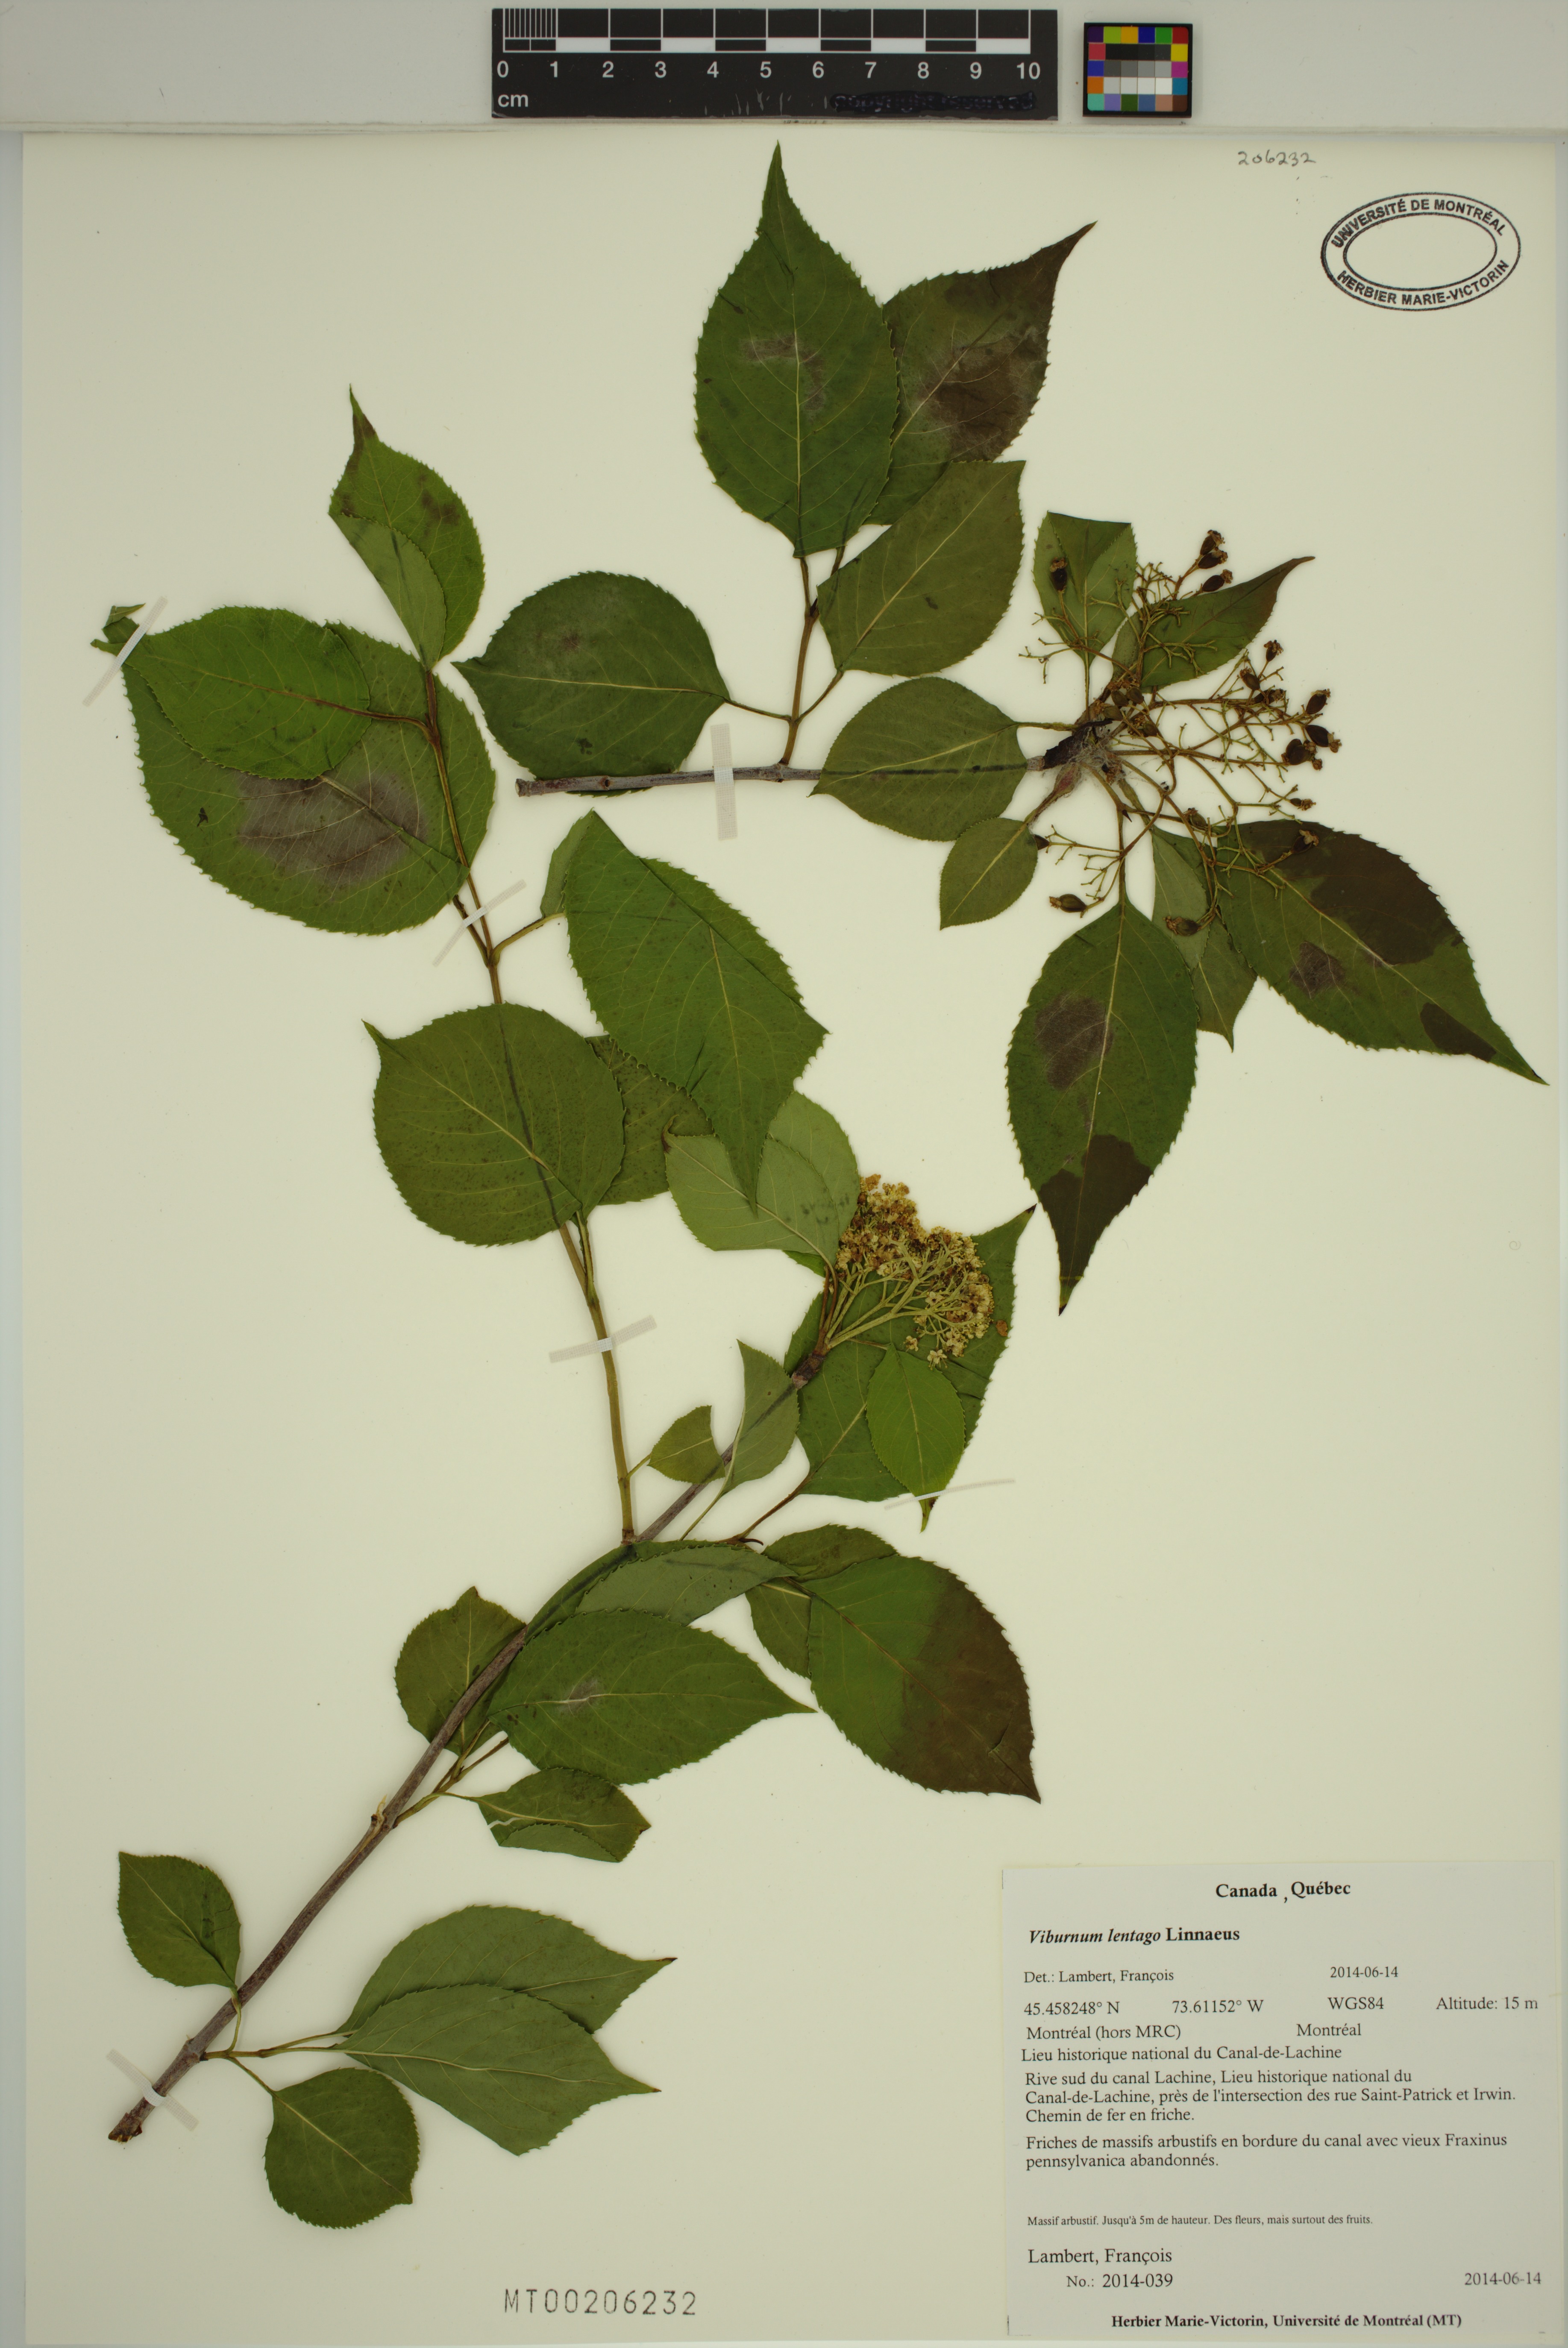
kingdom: Plantae
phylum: Tracheophyta
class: Magnoliopsida
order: Dipsacales
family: Viburnaceae
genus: Viburnum
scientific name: Viburnum lentago
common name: Black haw
